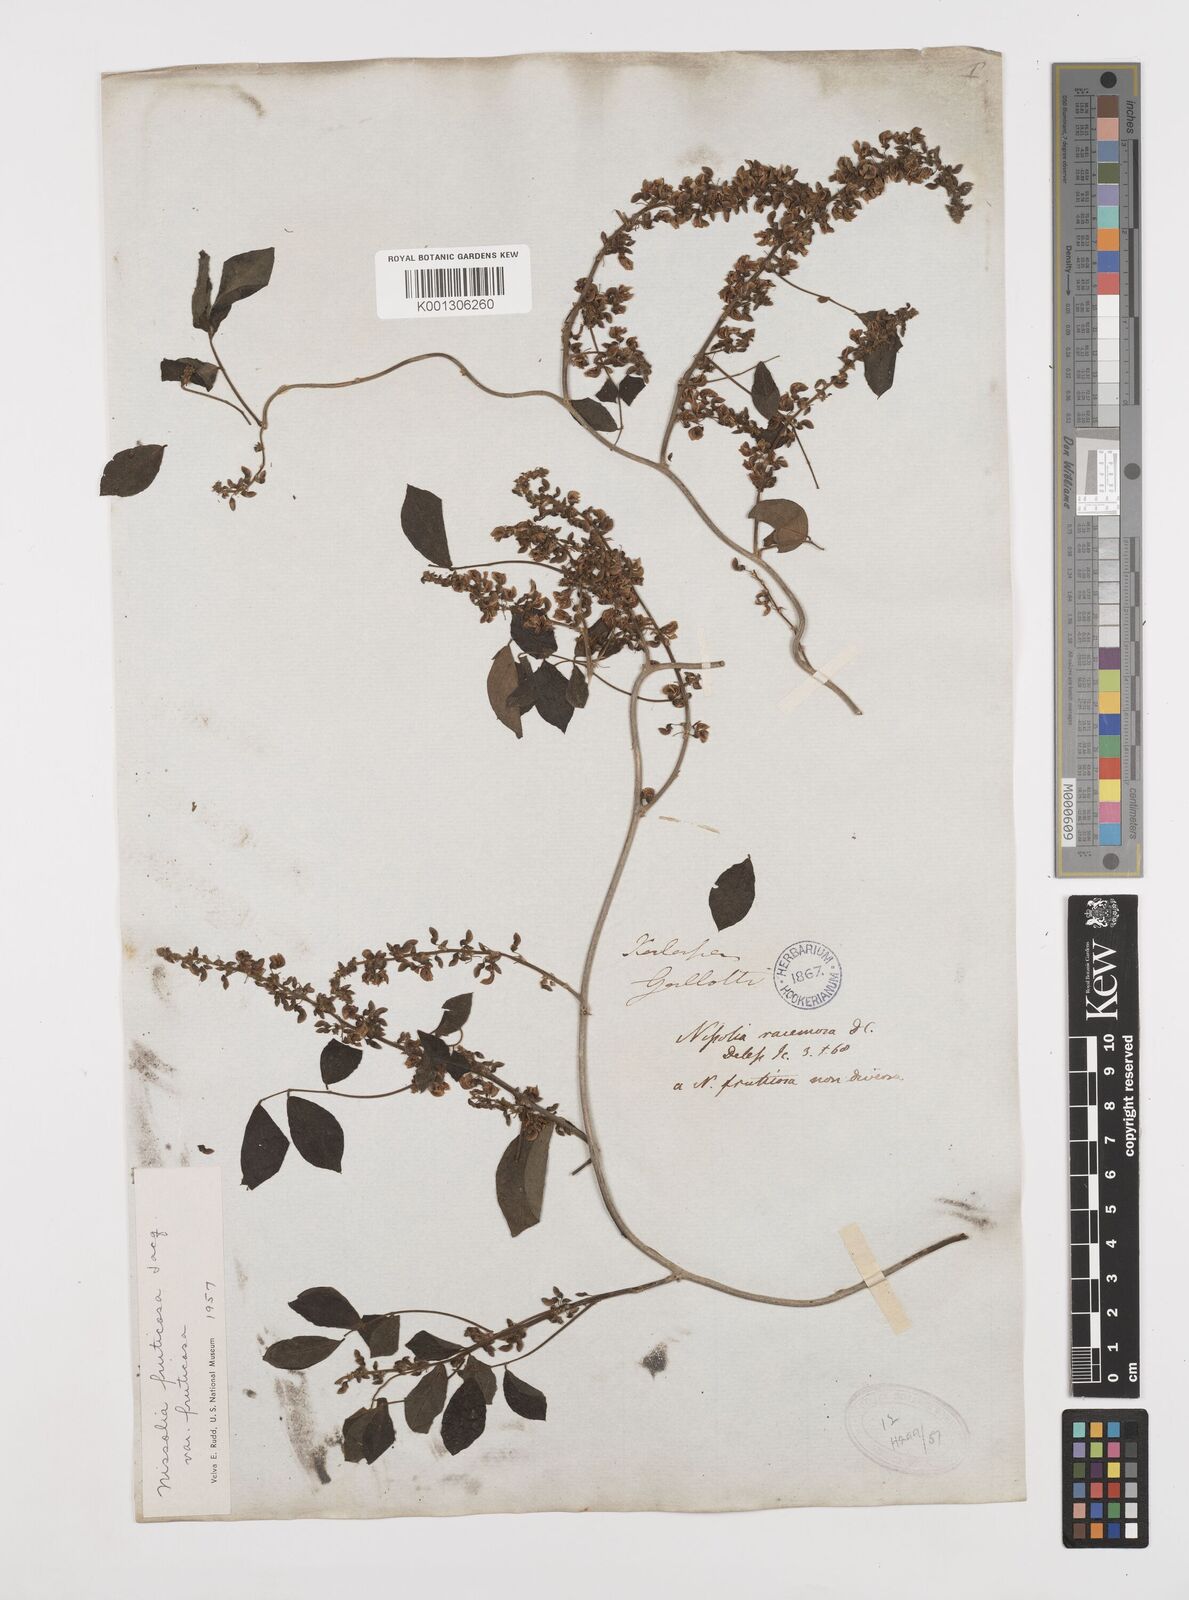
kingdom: Plantae
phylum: Tracheophyta
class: Magnoliopsida
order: Fabales
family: Fabaceae
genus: Nissolia
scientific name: Nissolia fruticosa
